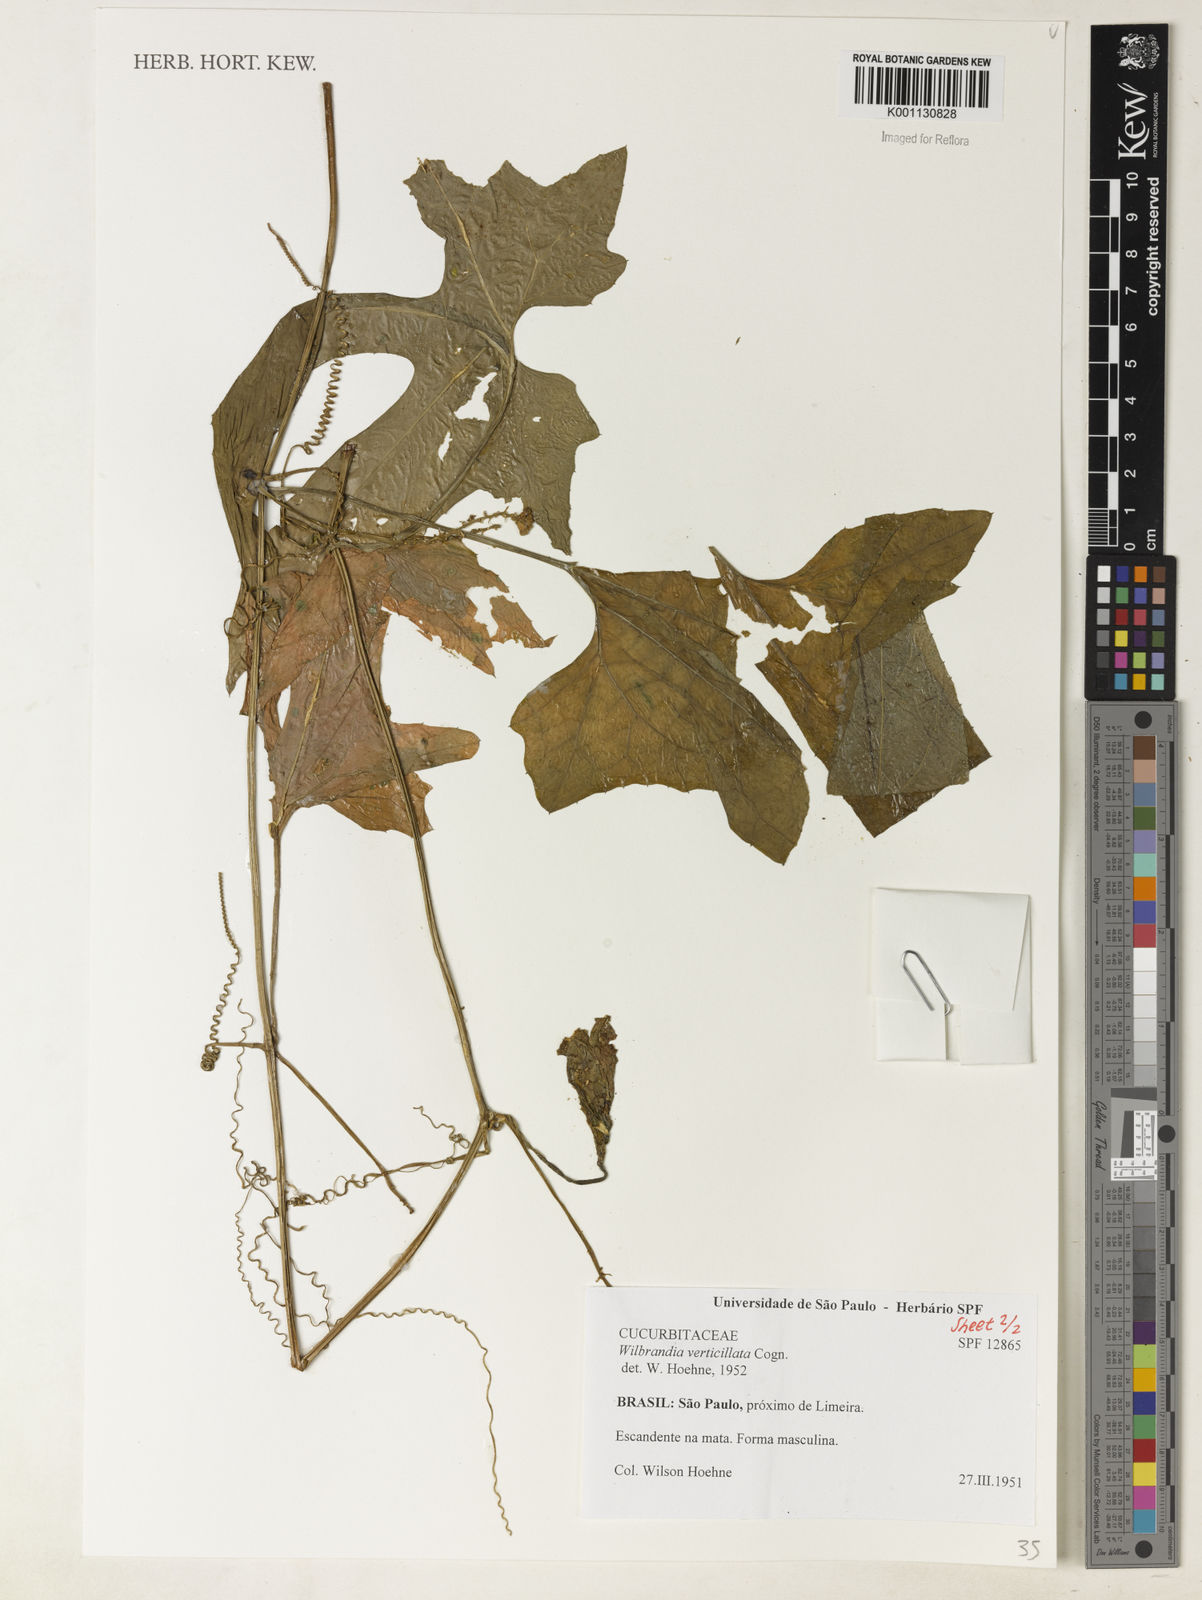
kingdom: Plantae
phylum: Tracheophyta
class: Magnoliopsida
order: Cucurbitales
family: Cucurbitaceae
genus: Wilbrandia
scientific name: Wilbrandia verticillata
